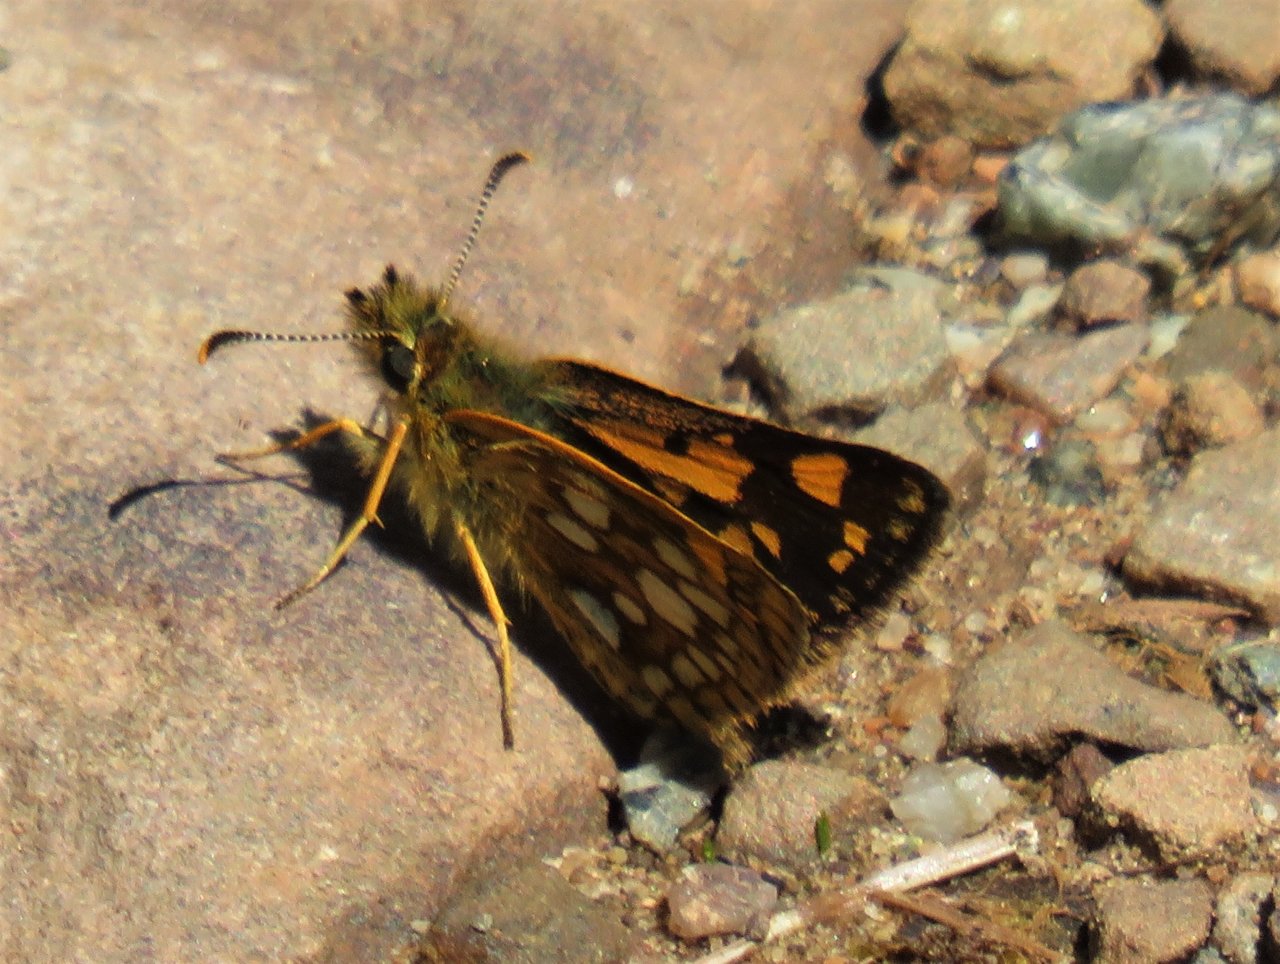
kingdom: Animalia
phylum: Arthropoda
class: Insecta
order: Lepidoptera
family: Hesperiidae
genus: Carterocephalus
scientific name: Carterocephalus palaemon
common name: Chequered Skipper
